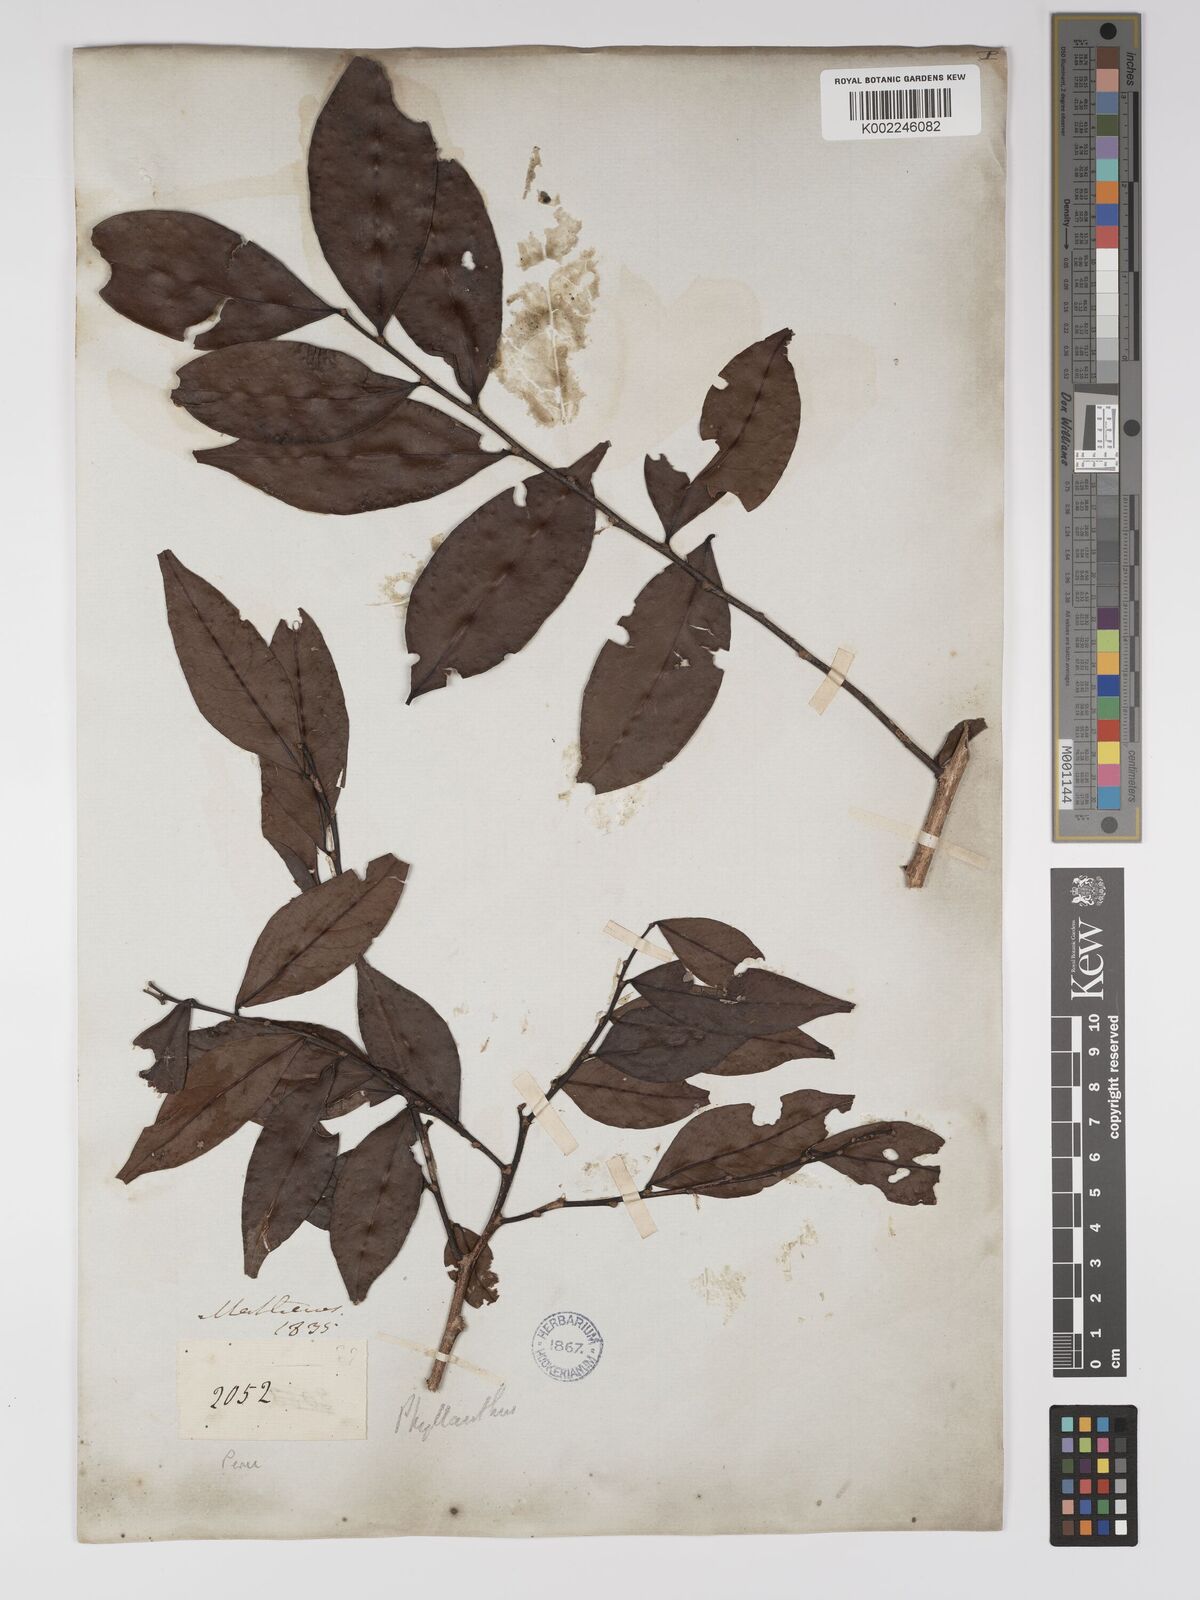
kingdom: Plantae
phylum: Tracheophyta
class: Magnoliopsida
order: Malpighiales
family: Euphorbiaceae
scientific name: Euphorbiaceae
